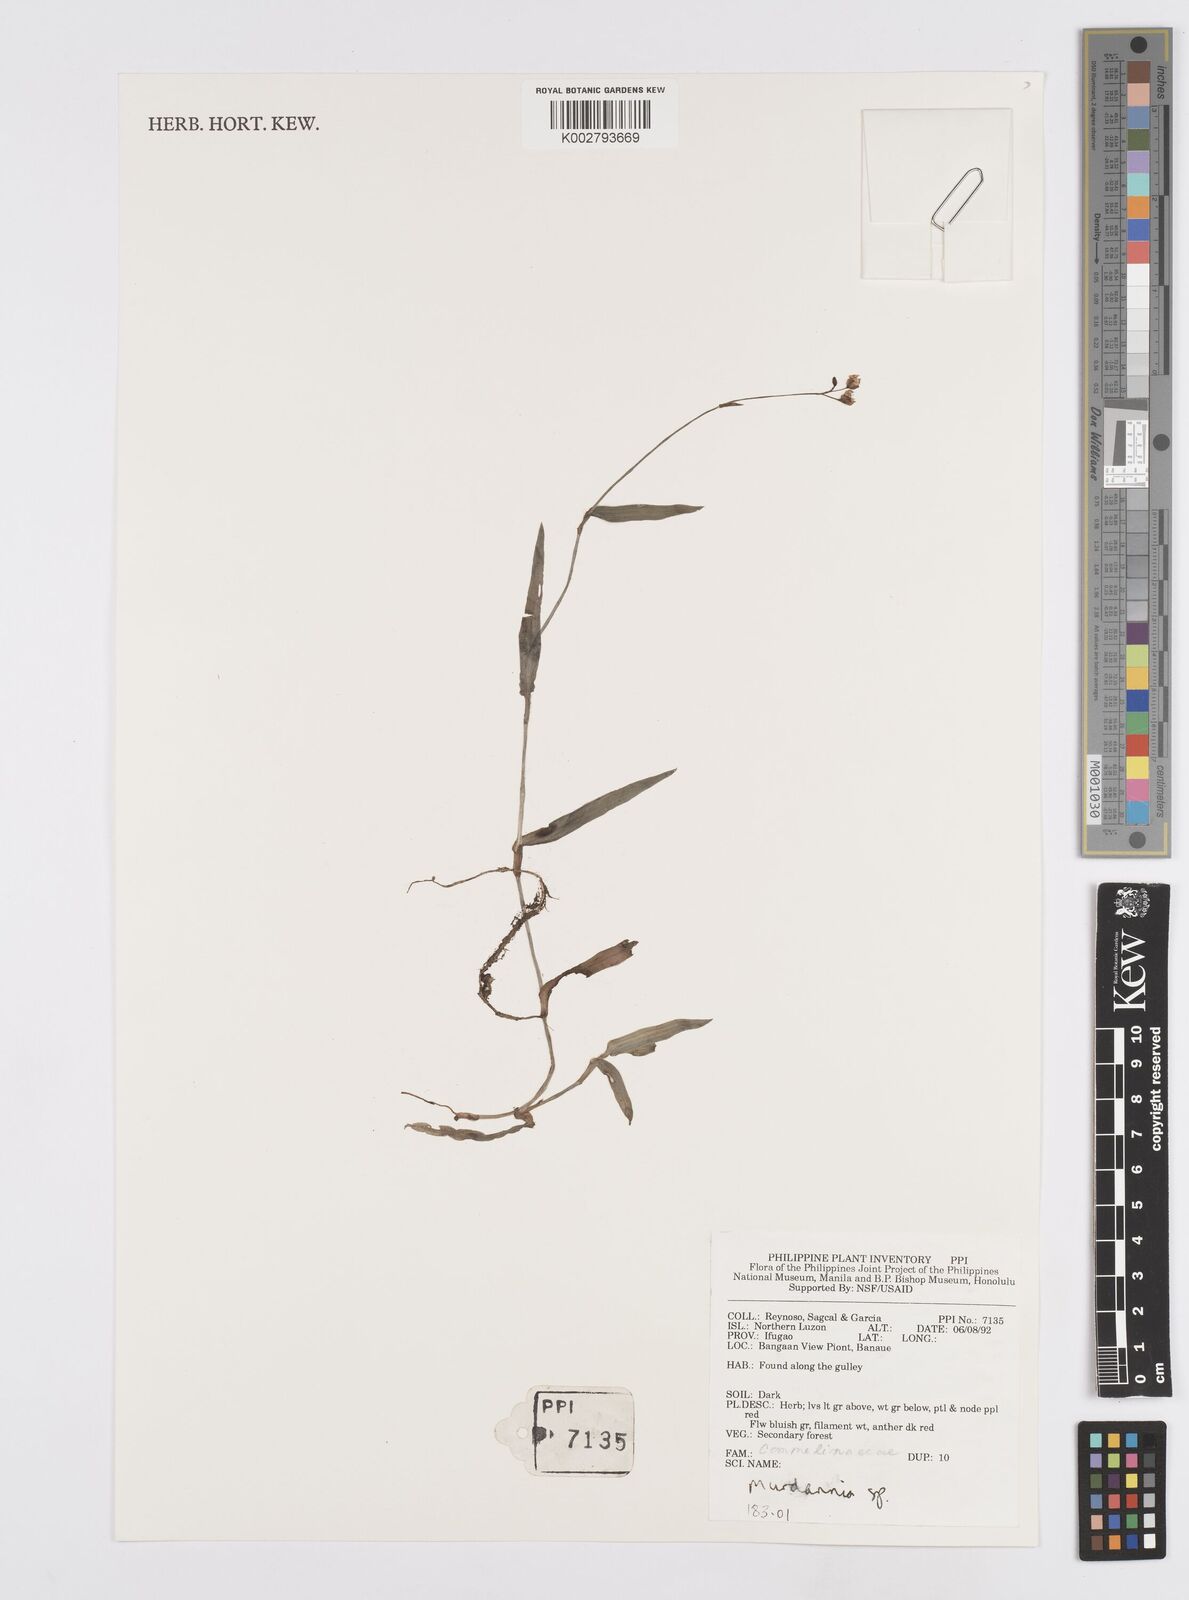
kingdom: Plantae
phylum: Tracheophyta
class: Liliopsida
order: Commelinales
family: Commelinaceae
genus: Murdannia
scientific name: Murdannia
